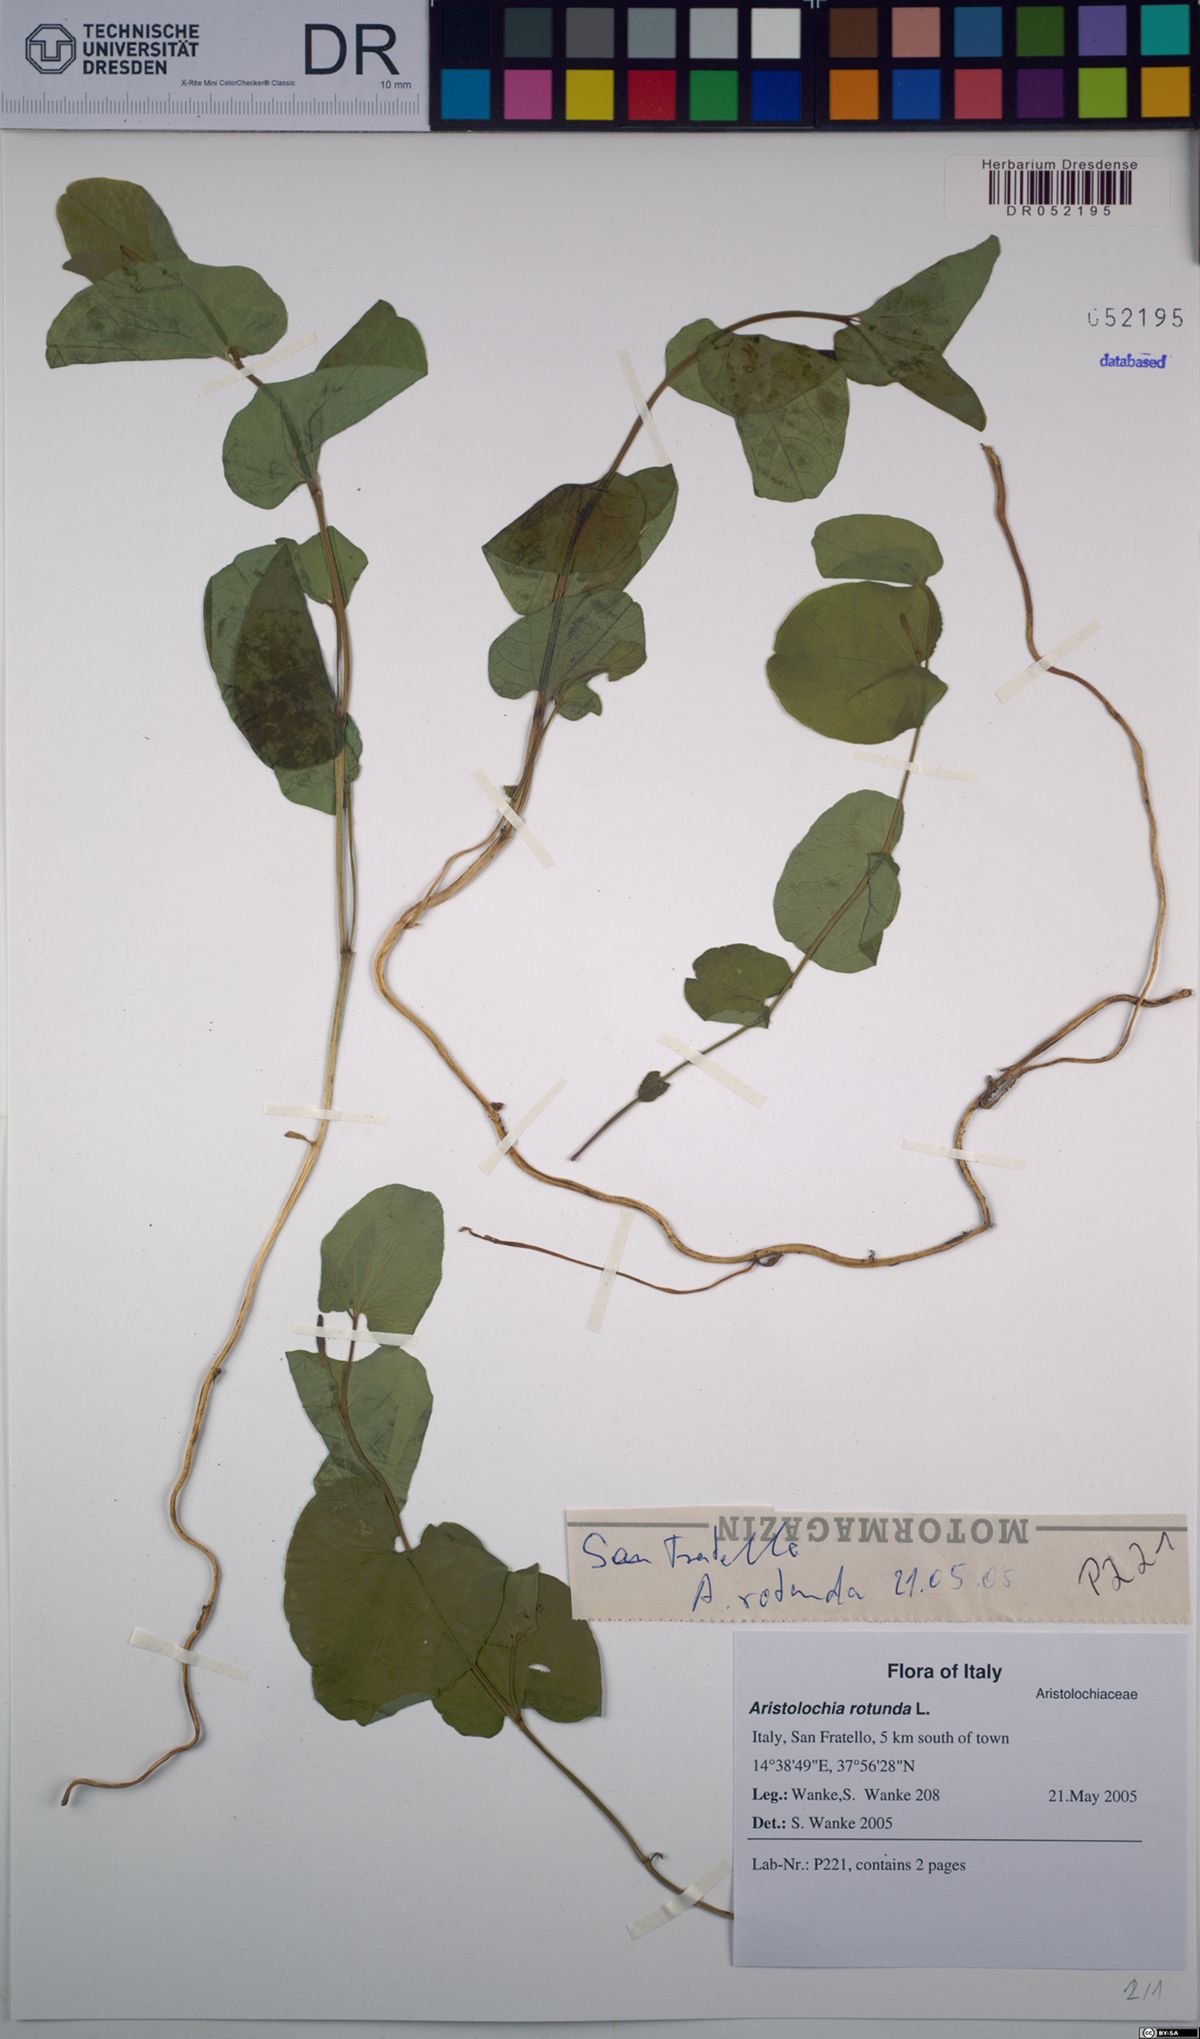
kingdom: Plantae
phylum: Tracheophyta
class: Magnoliopsida
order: Piperales
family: Aristolochiaceae
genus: Aristolochia
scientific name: Aristolochia rotunda
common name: Smearwort
